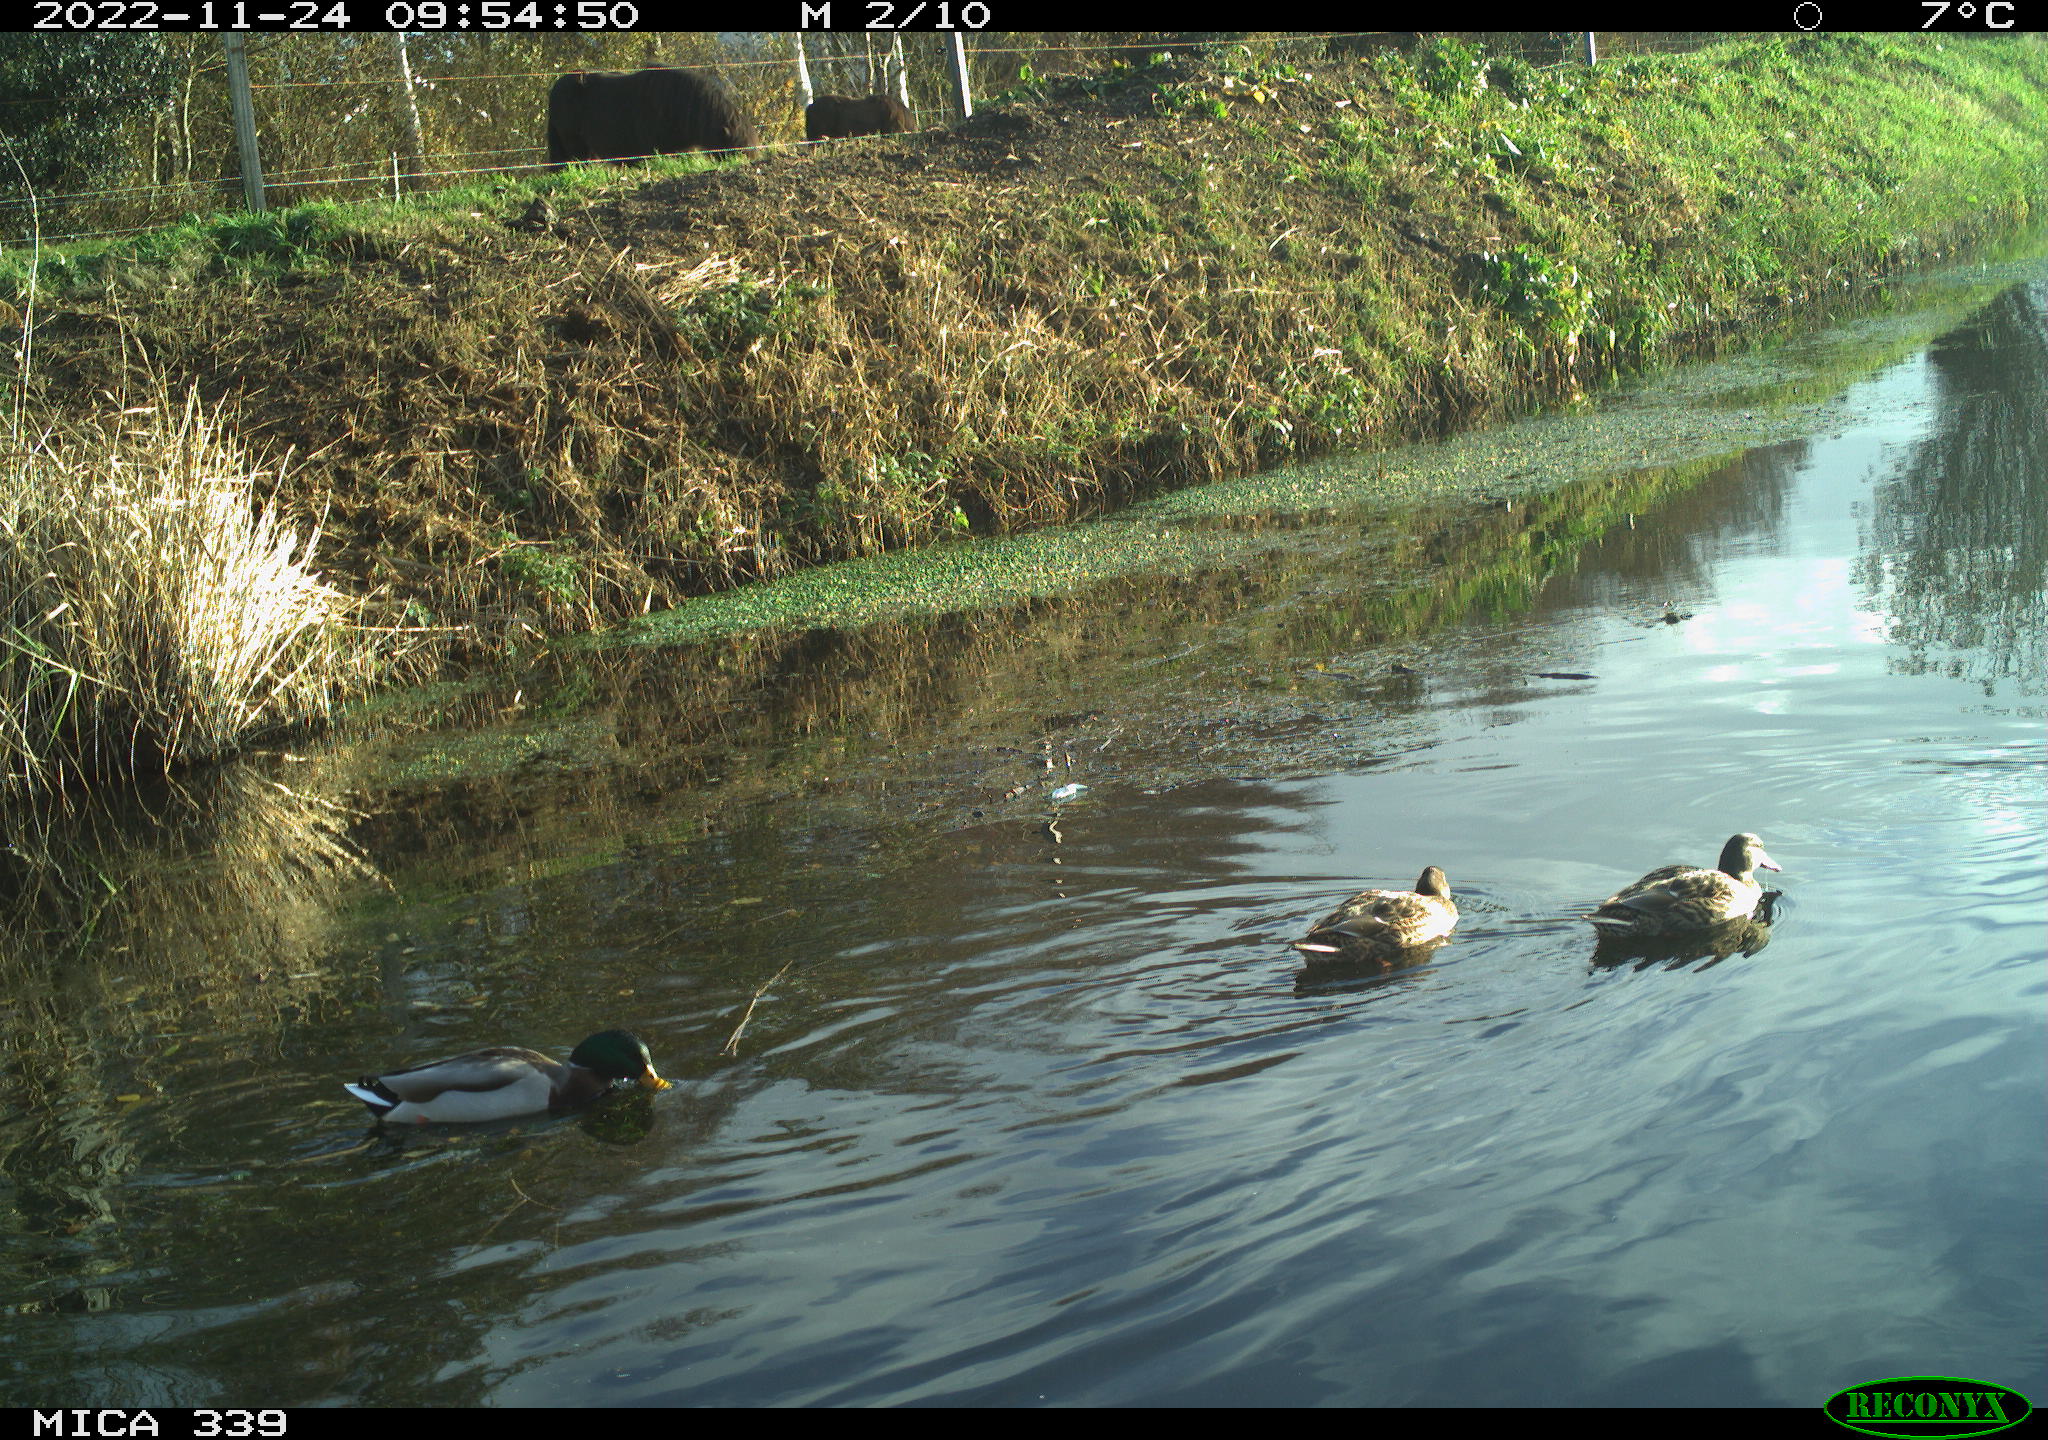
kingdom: Animalia
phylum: Chordata
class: Aves
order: Anseriformes
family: Anatidae
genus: Anas
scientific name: Anas
